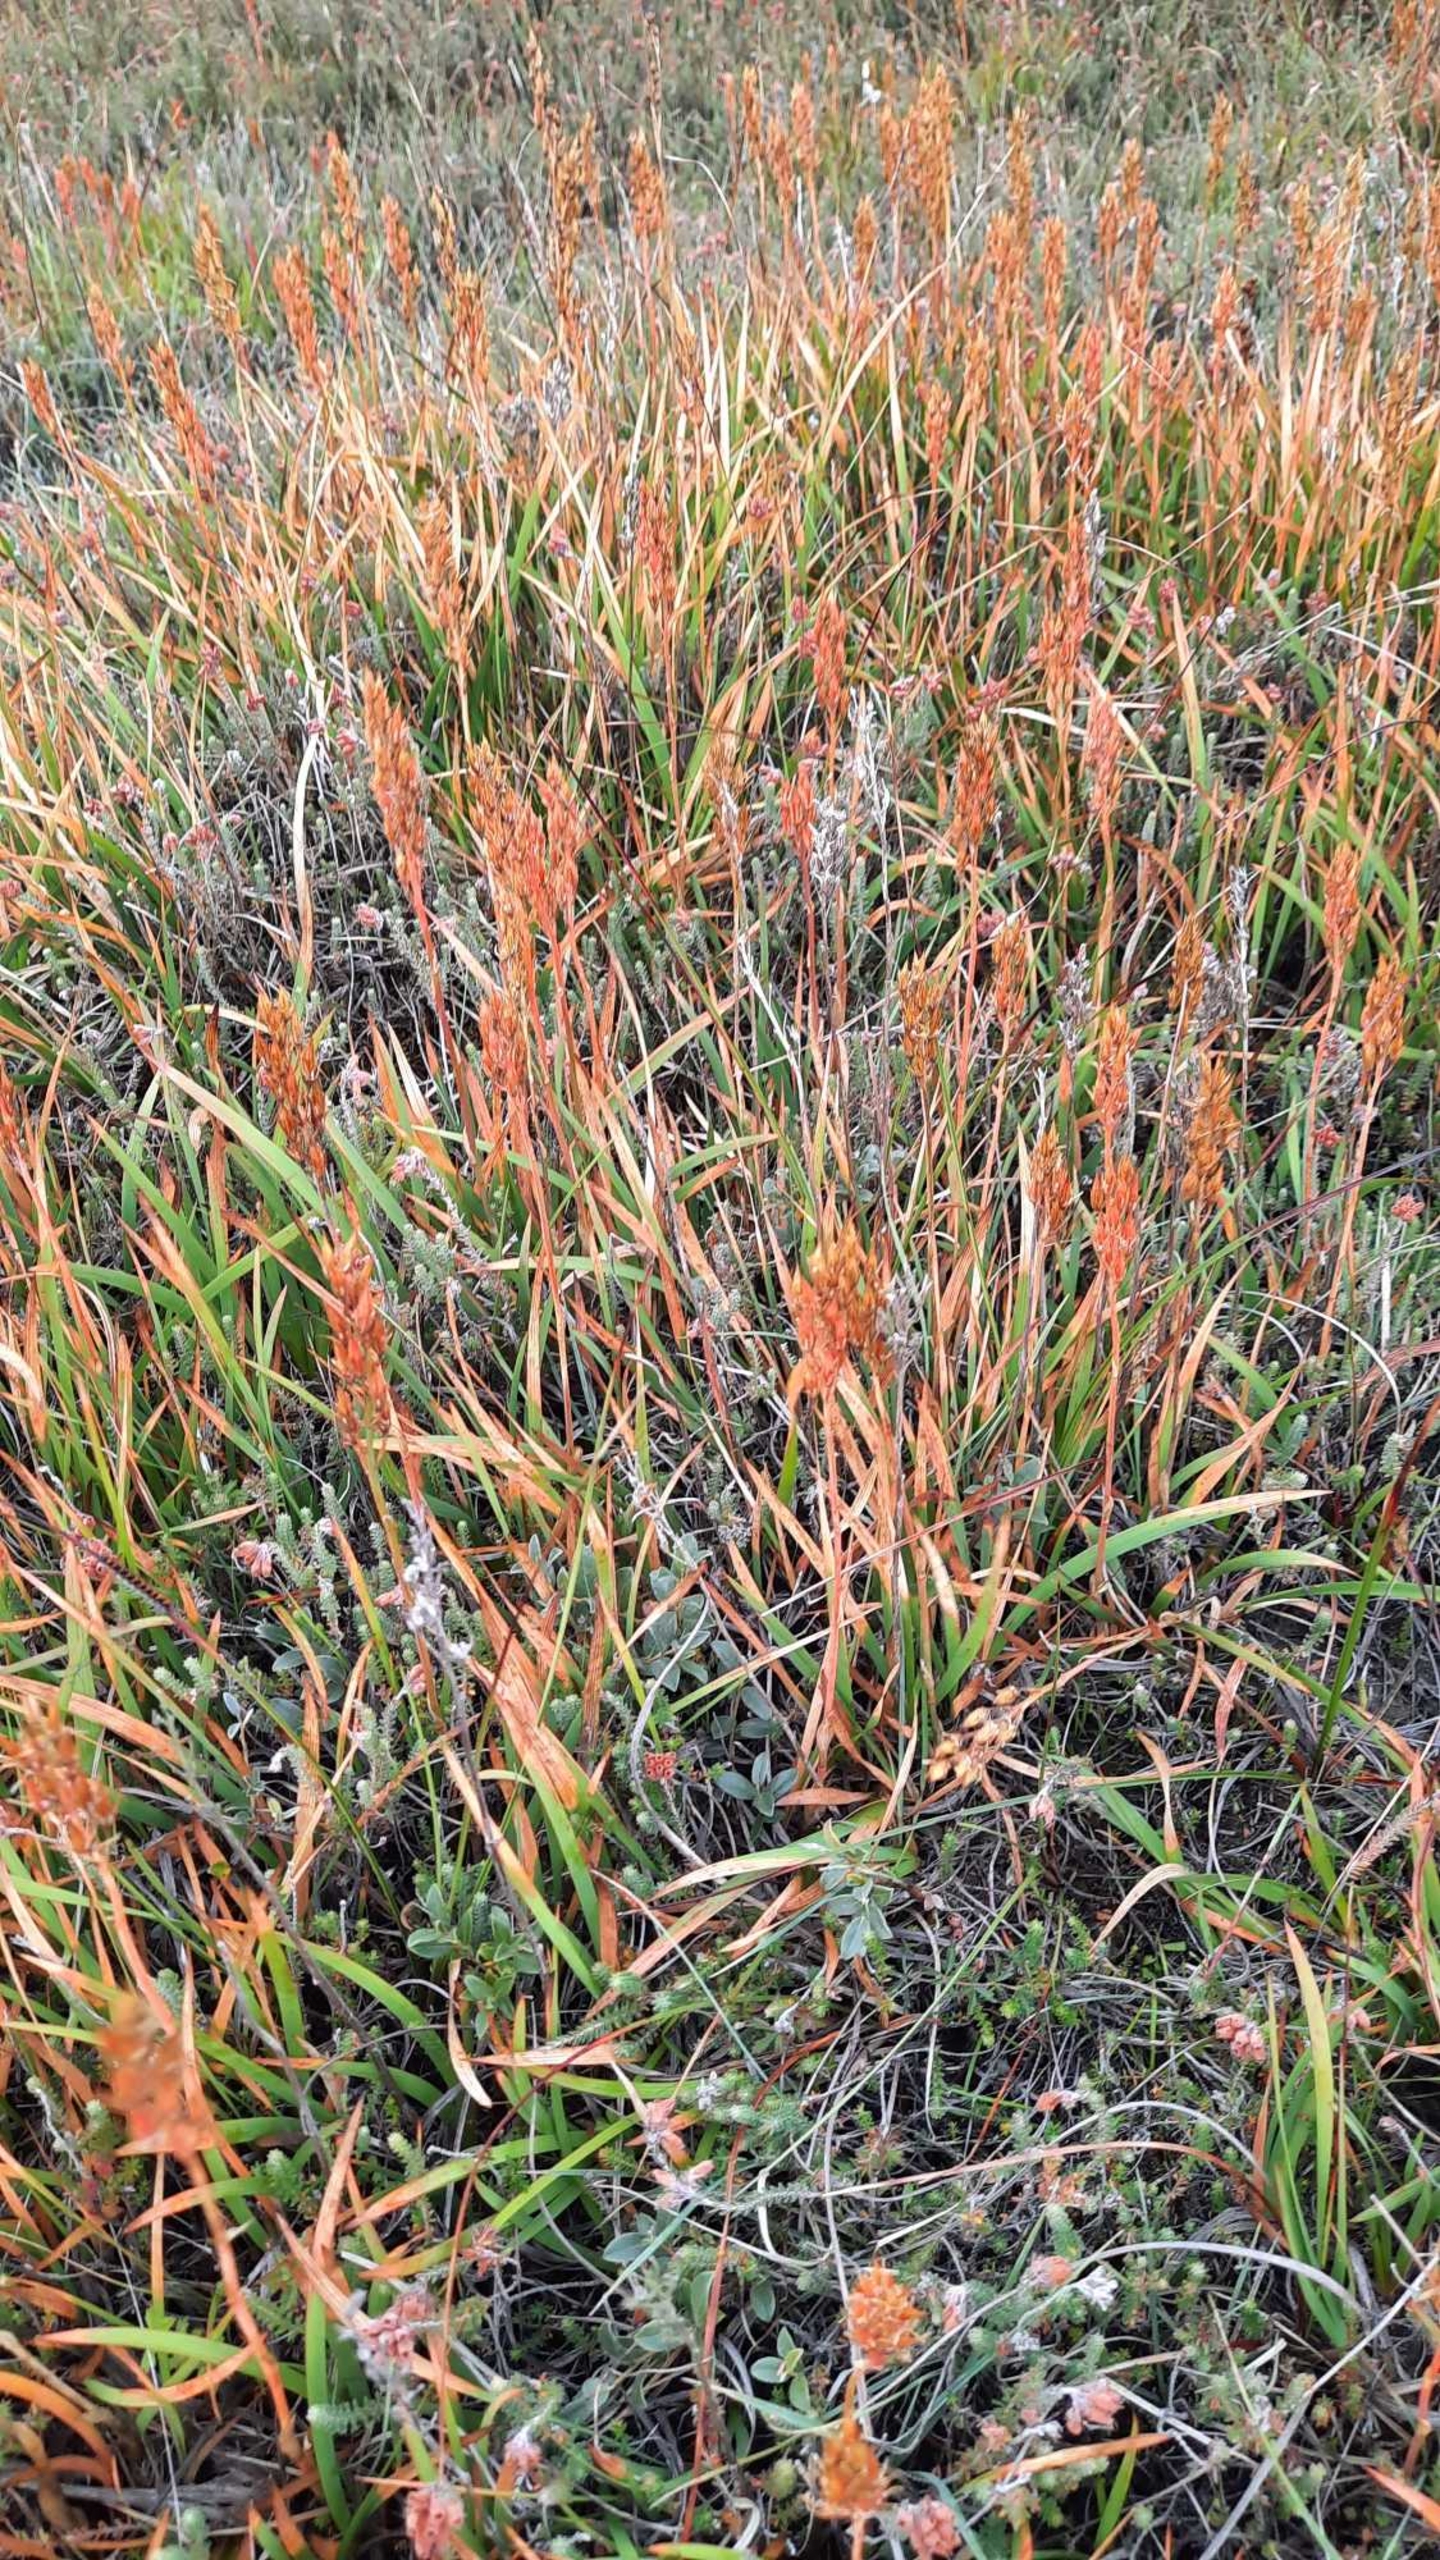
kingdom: Plantae
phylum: Tracheophyta
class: Liliopsida
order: Dioscoreales
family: Nartheciaceae
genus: Narthecium
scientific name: Narthecium ossifragum
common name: Benbræk
